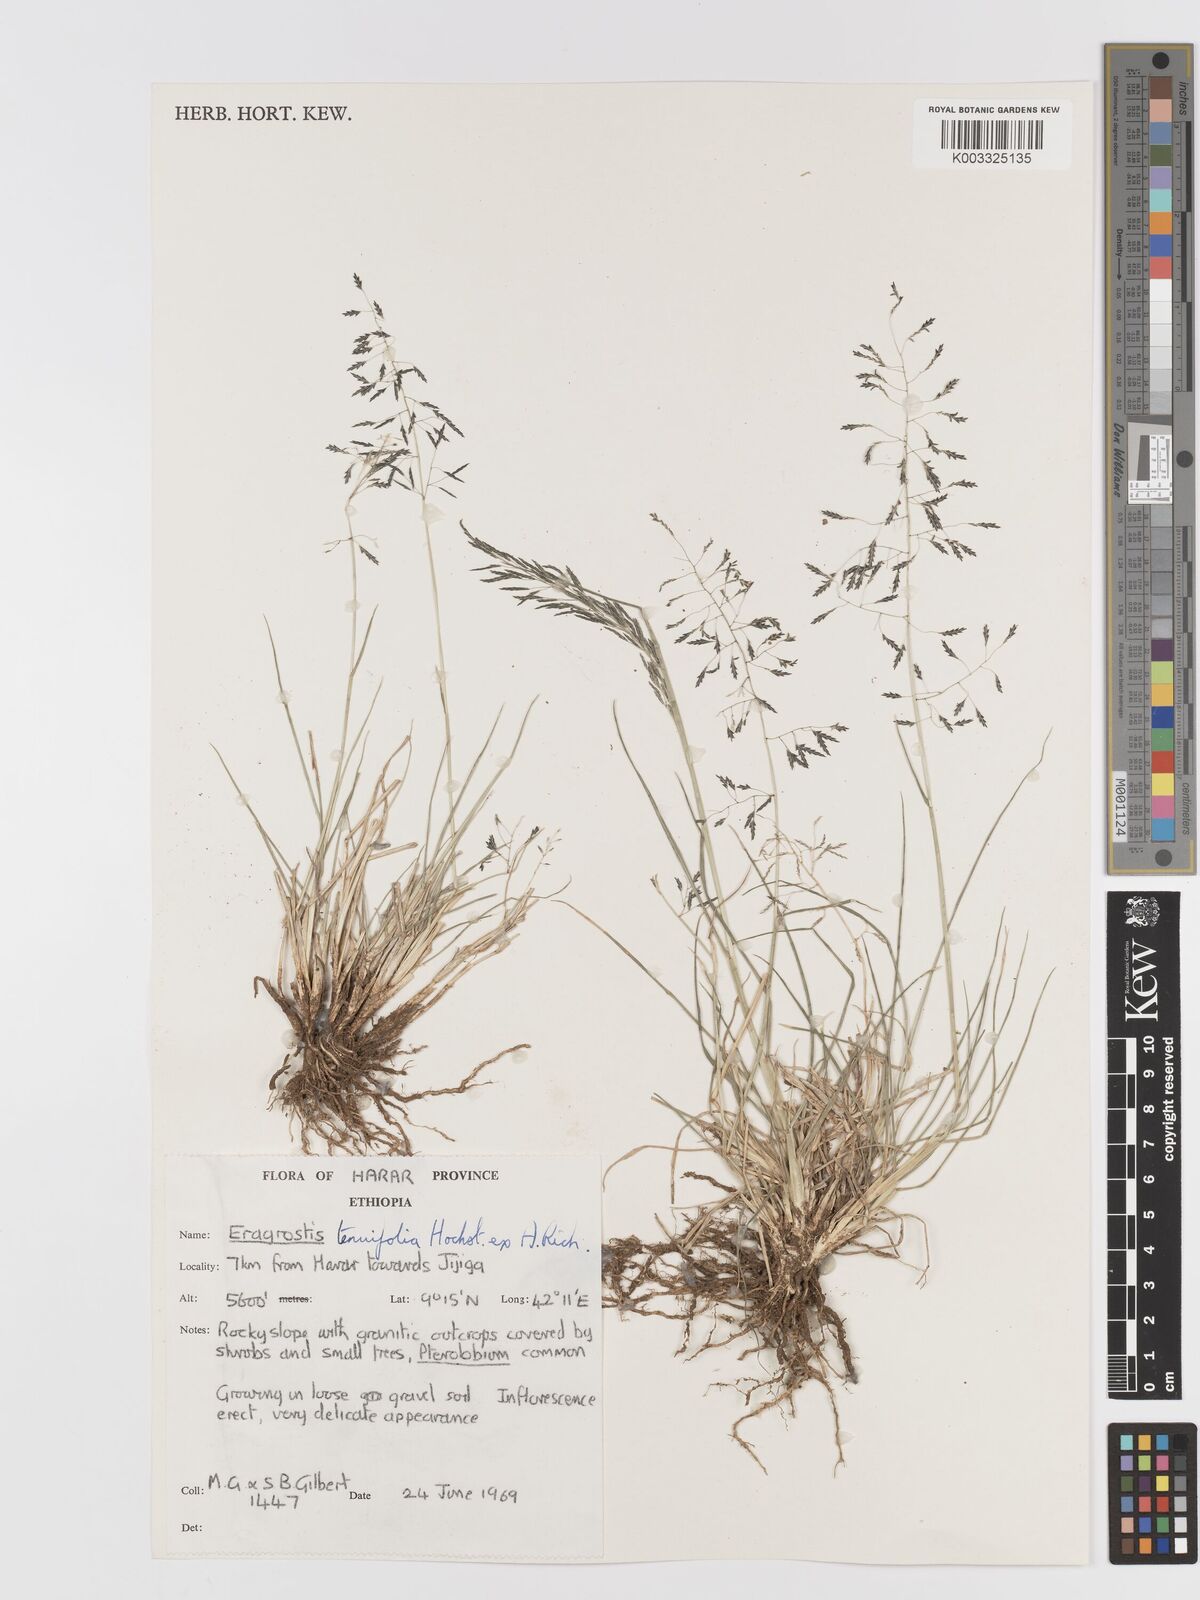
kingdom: Plantae
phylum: Tracheophyta
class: Liliopsida
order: Poales
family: Poaceae
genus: Eragrostis
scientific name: Eragrostis tenuifolia
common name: Elastic grass
